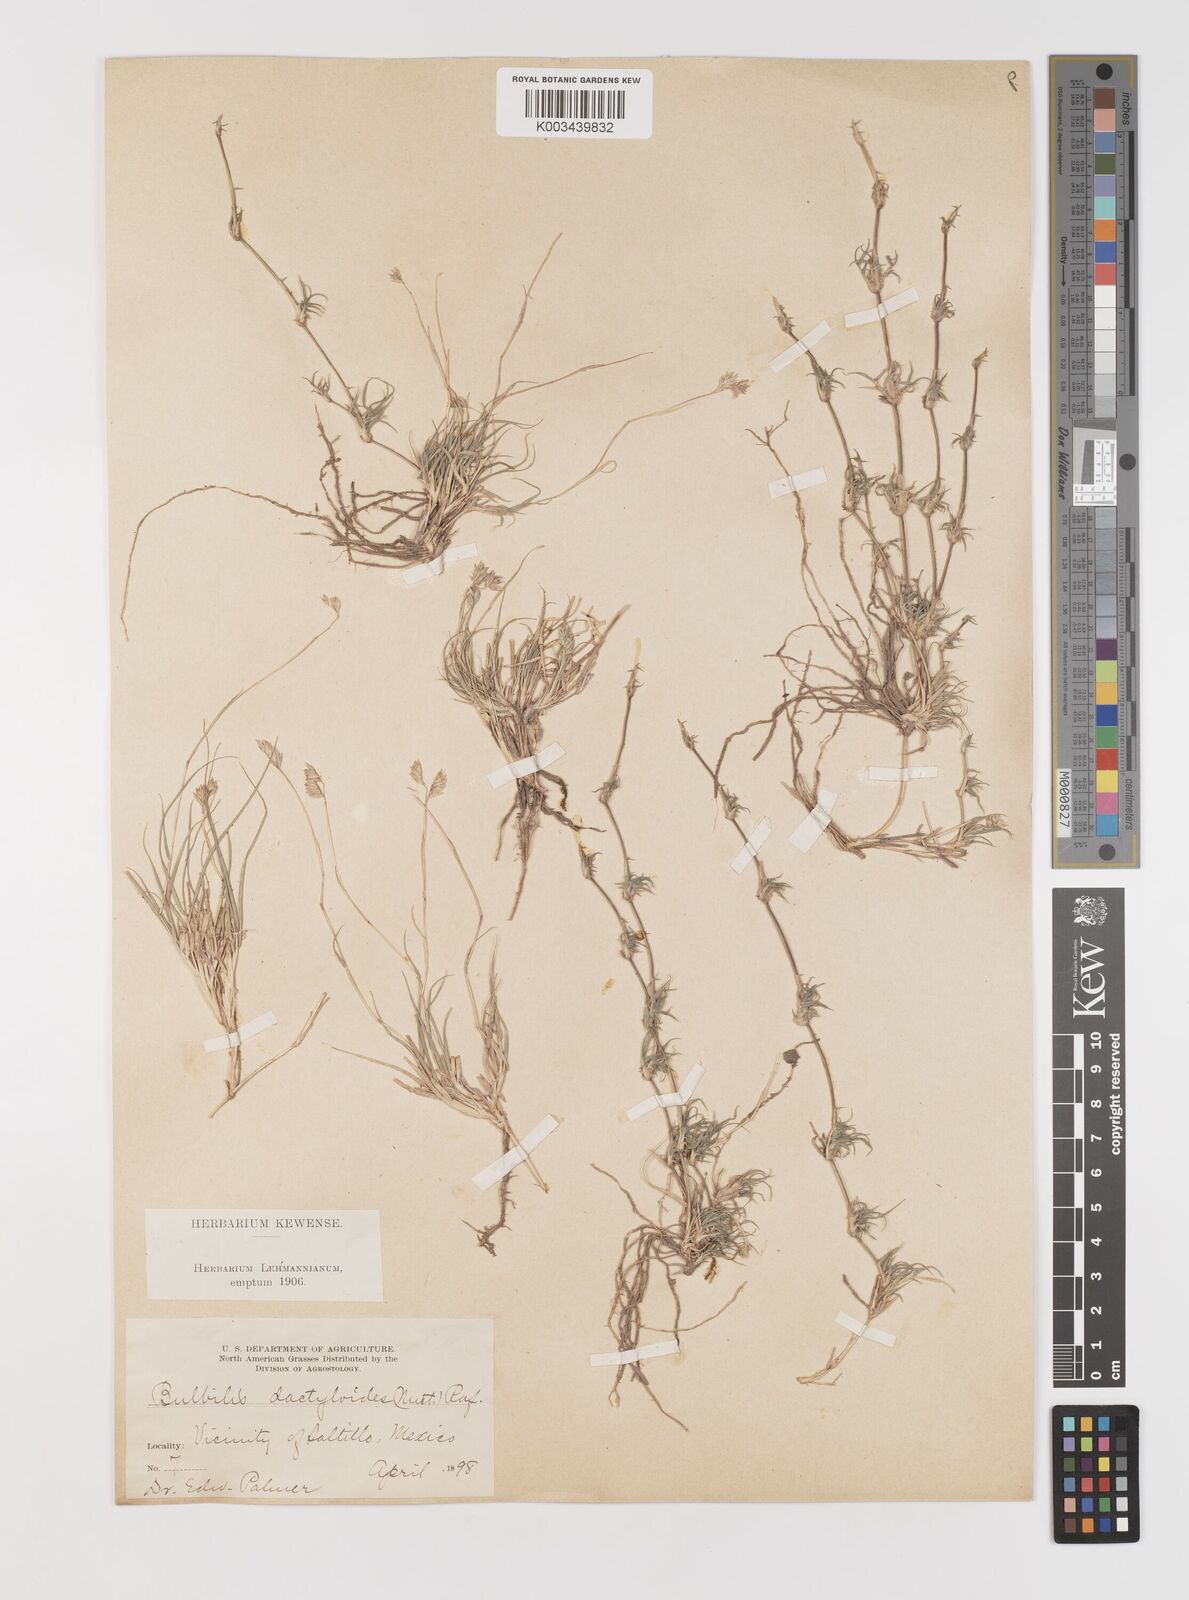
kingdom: Plantae
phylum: Tracheophyta
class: Liliopsida
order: Poales
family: Poaceae
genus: Bouteloua
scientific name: Bouteloua dactyloides
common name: Buffalo grass
